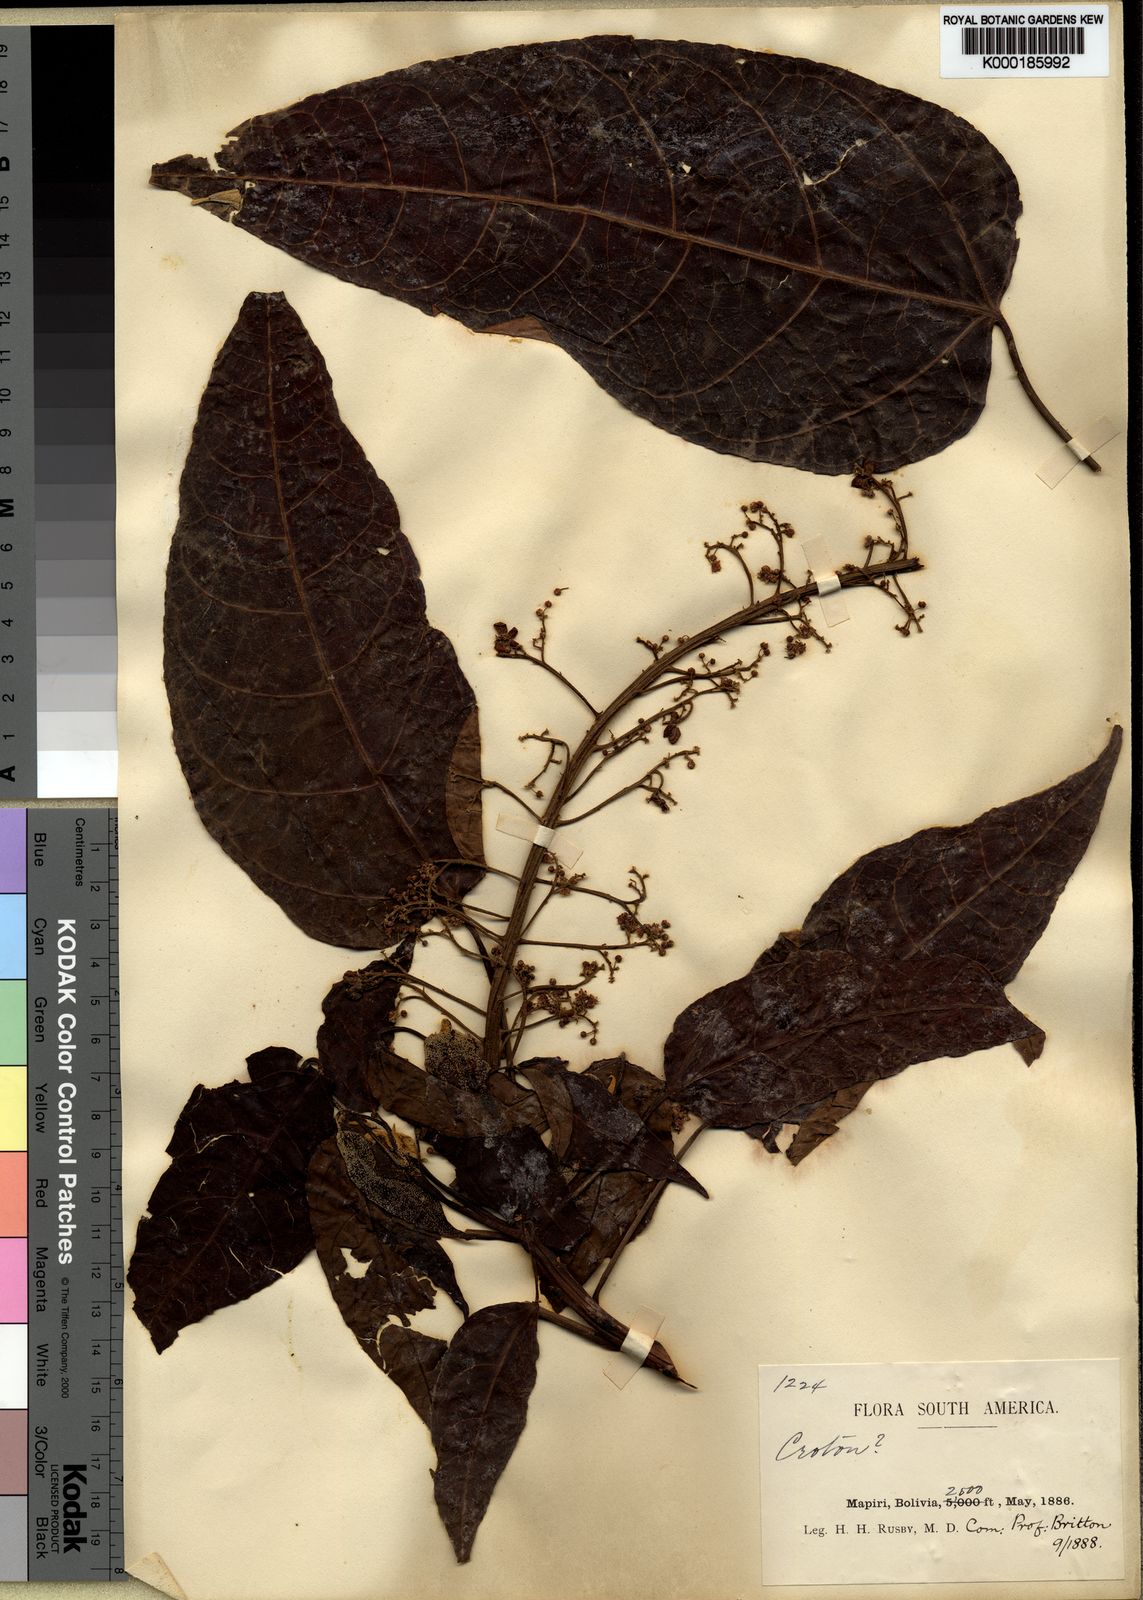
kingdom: Plantae
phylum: Tracheophyta
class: Magnoliopsida
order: Malpighiales
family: Euphorbiaceae
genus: Croton
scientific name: Croton rusbyi
